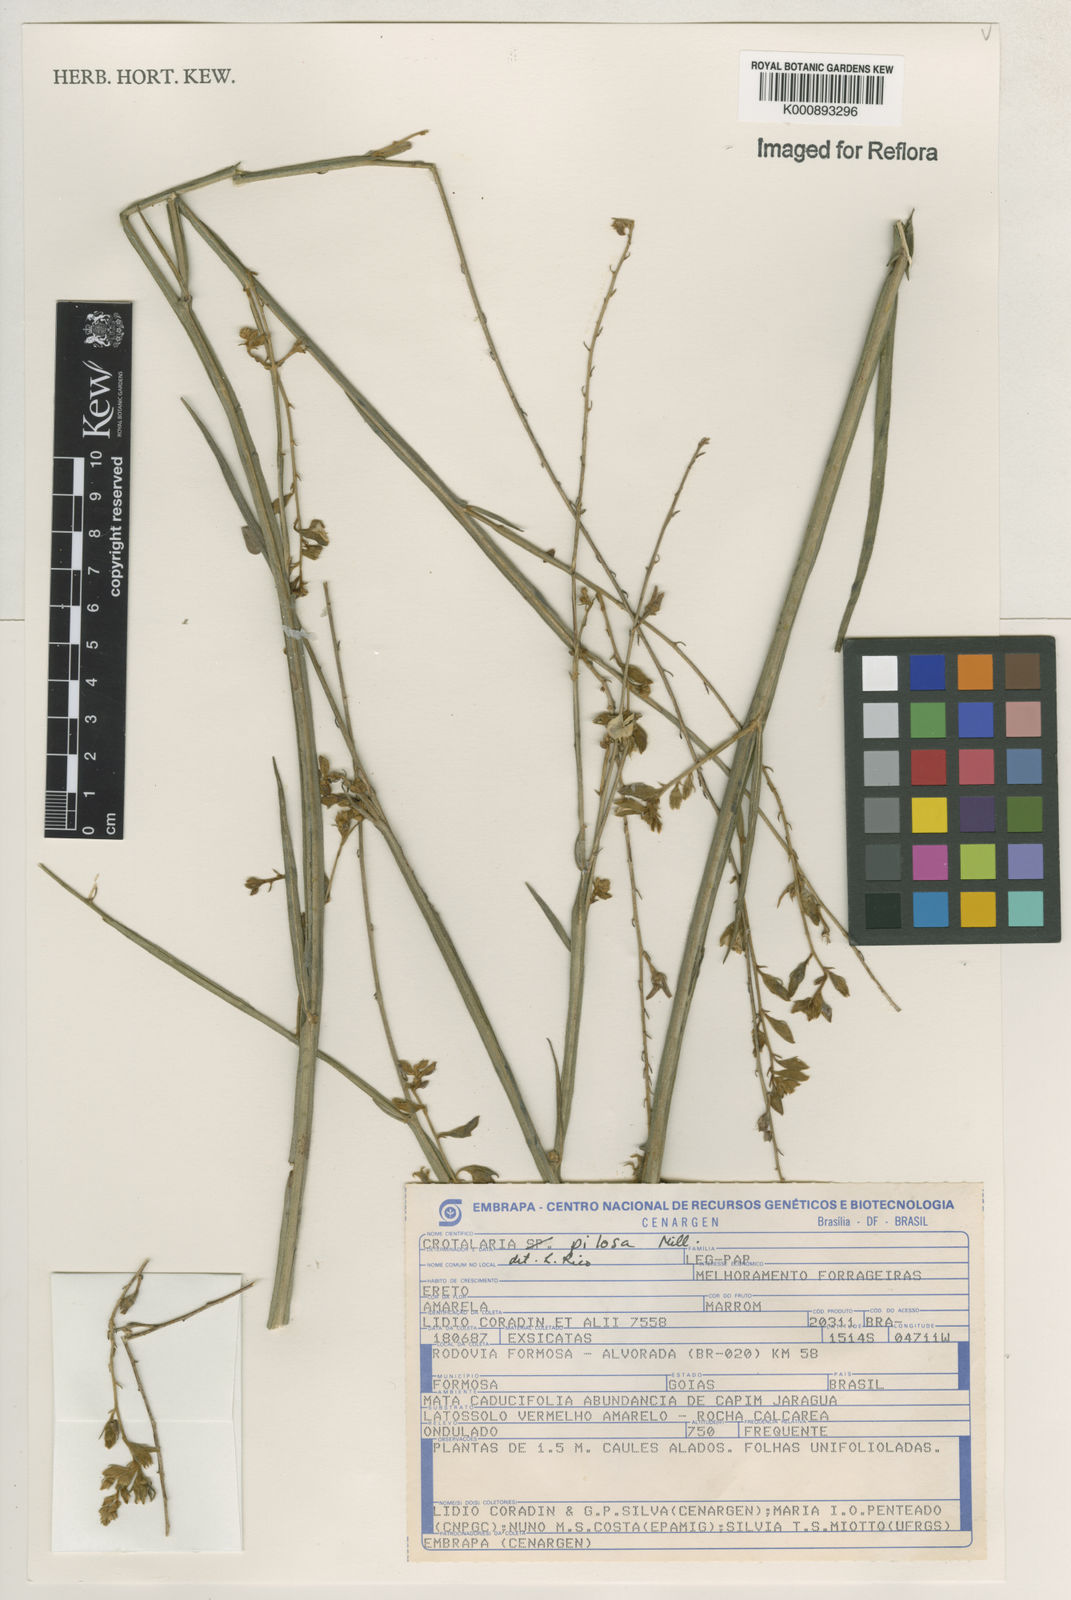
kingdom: Plantae
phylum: Tracheophyta
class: Magnoliopsida
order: Fabales
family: Fabaceae
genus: Crotalaria
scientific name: Crotalaria pilosa
